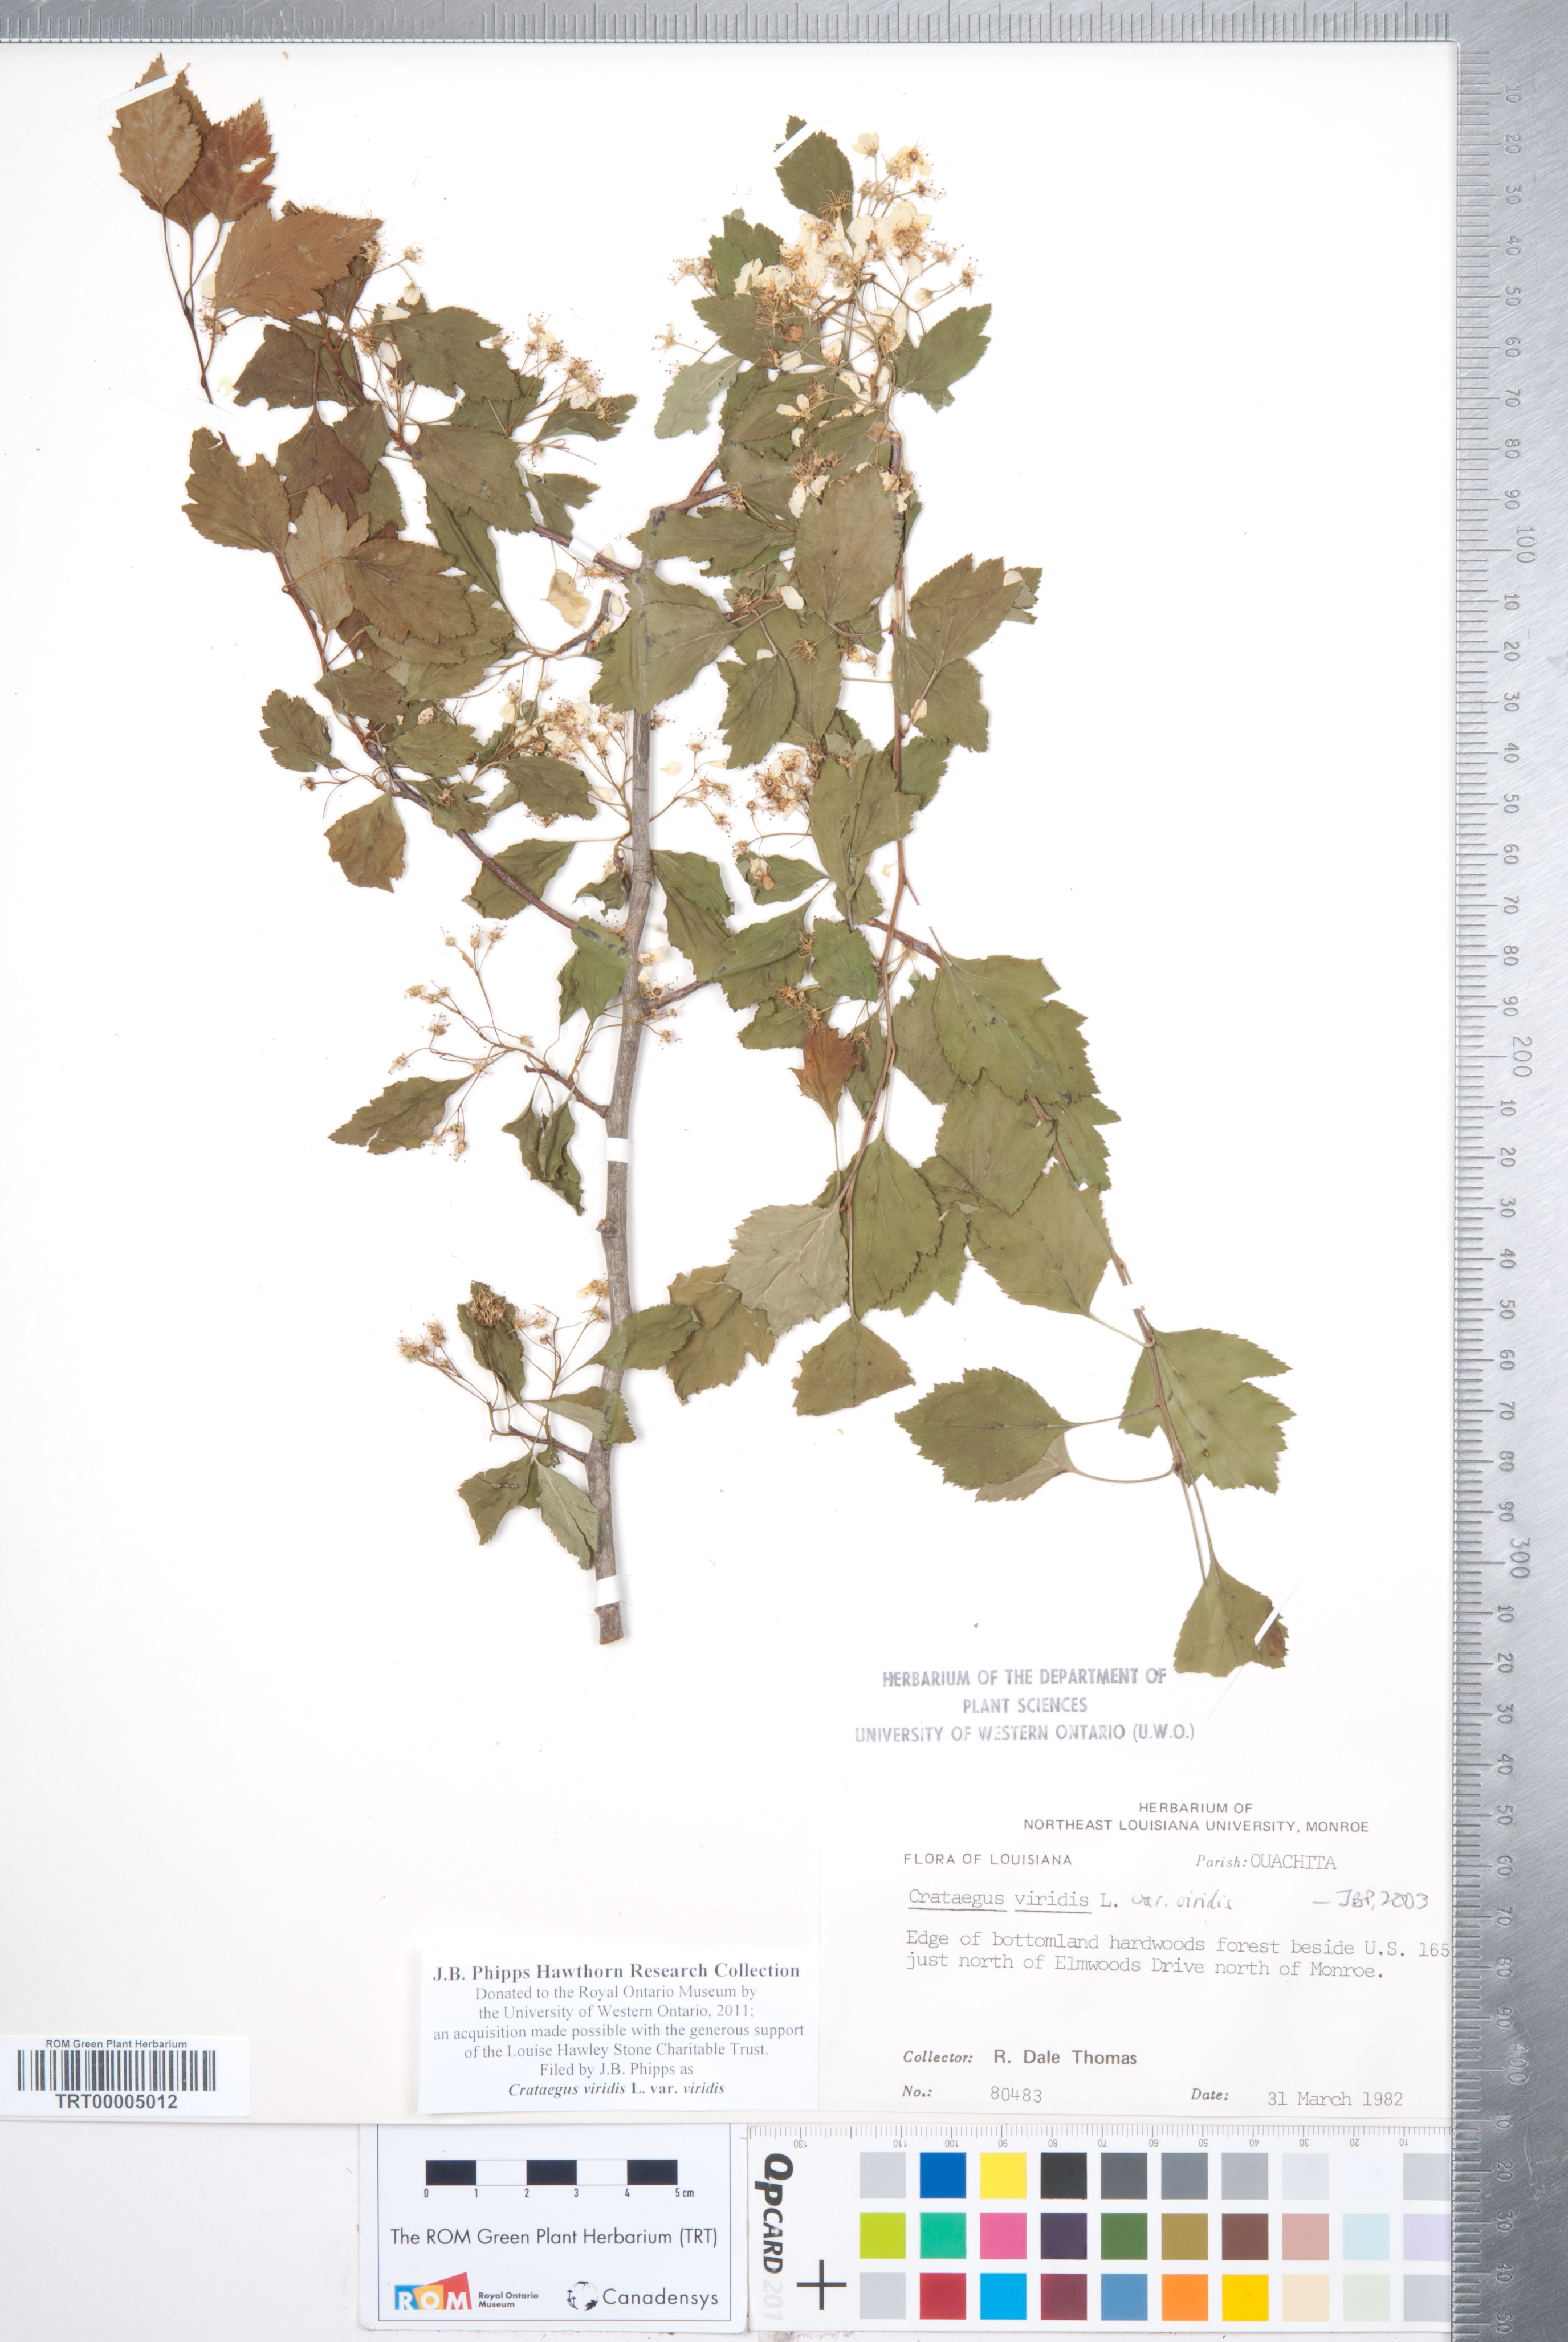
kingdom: Plantae
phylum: Tracheophyta
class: Magnoliopsida
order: Rosales
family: Rosaceae
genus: Crataegus
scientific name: Crataegus viridis
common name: Southernthorn
